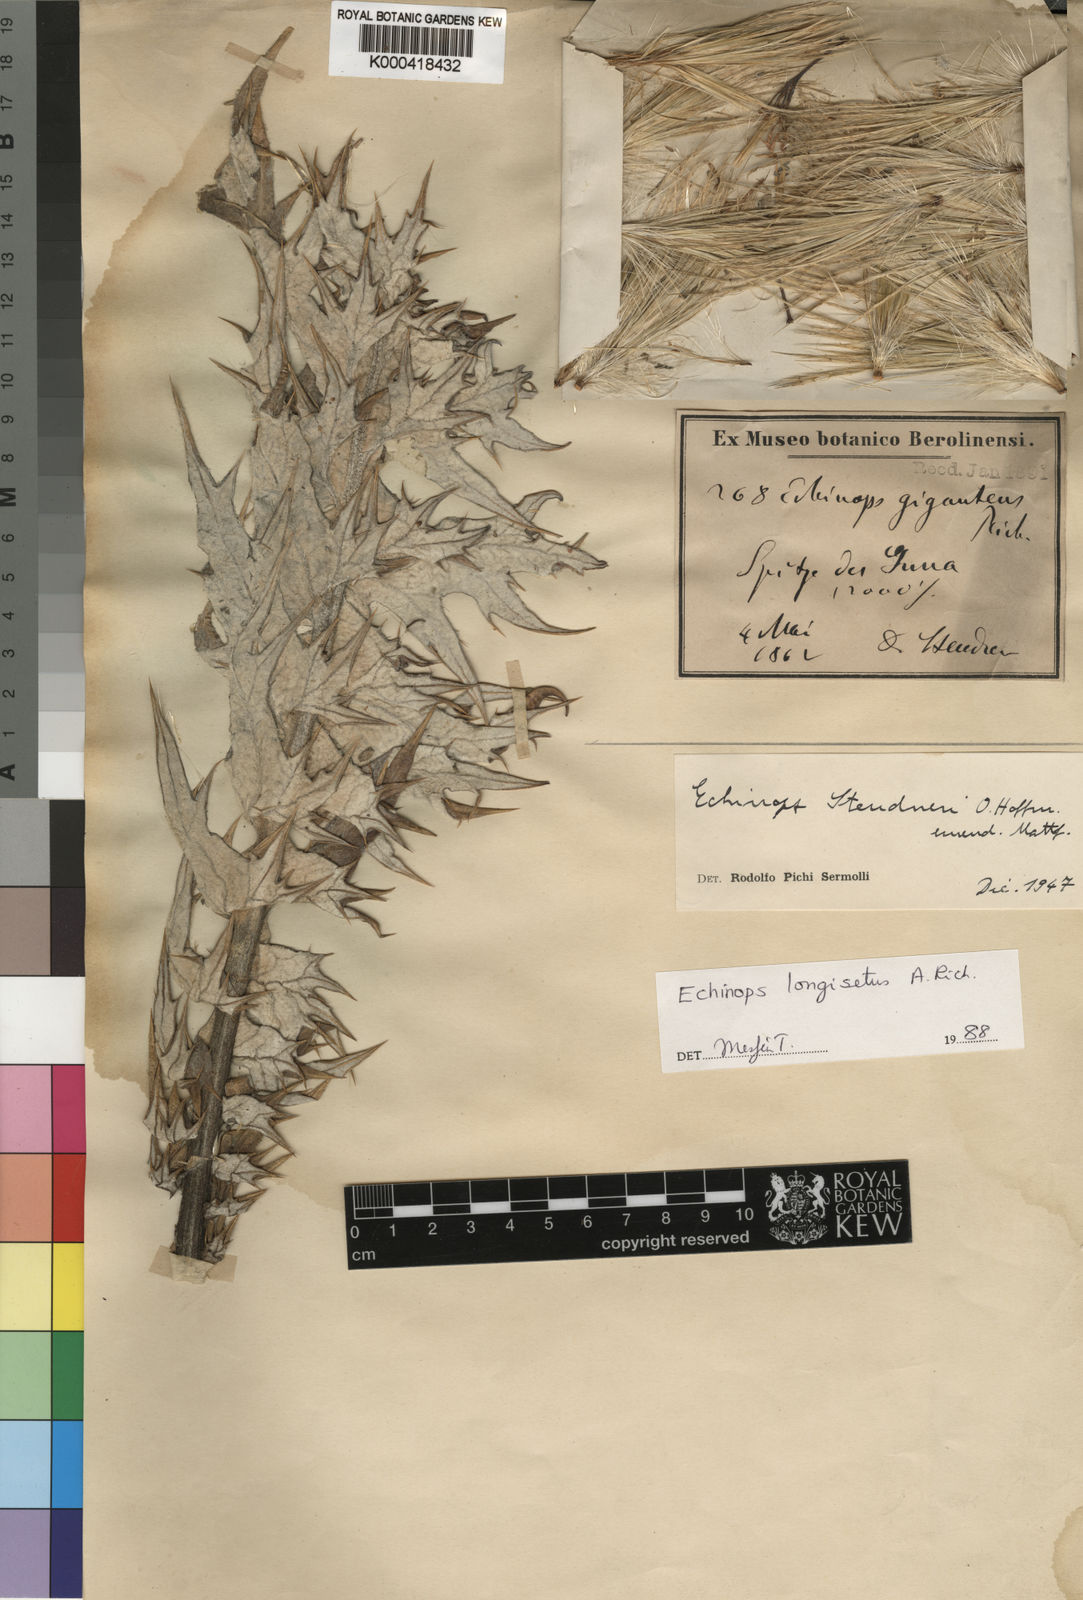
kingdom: Plantae
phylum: Tracheophyta
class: Magnoliopsida
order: Asterales
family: Asteraceae
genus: Echinops
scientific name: Echinops longisetus
